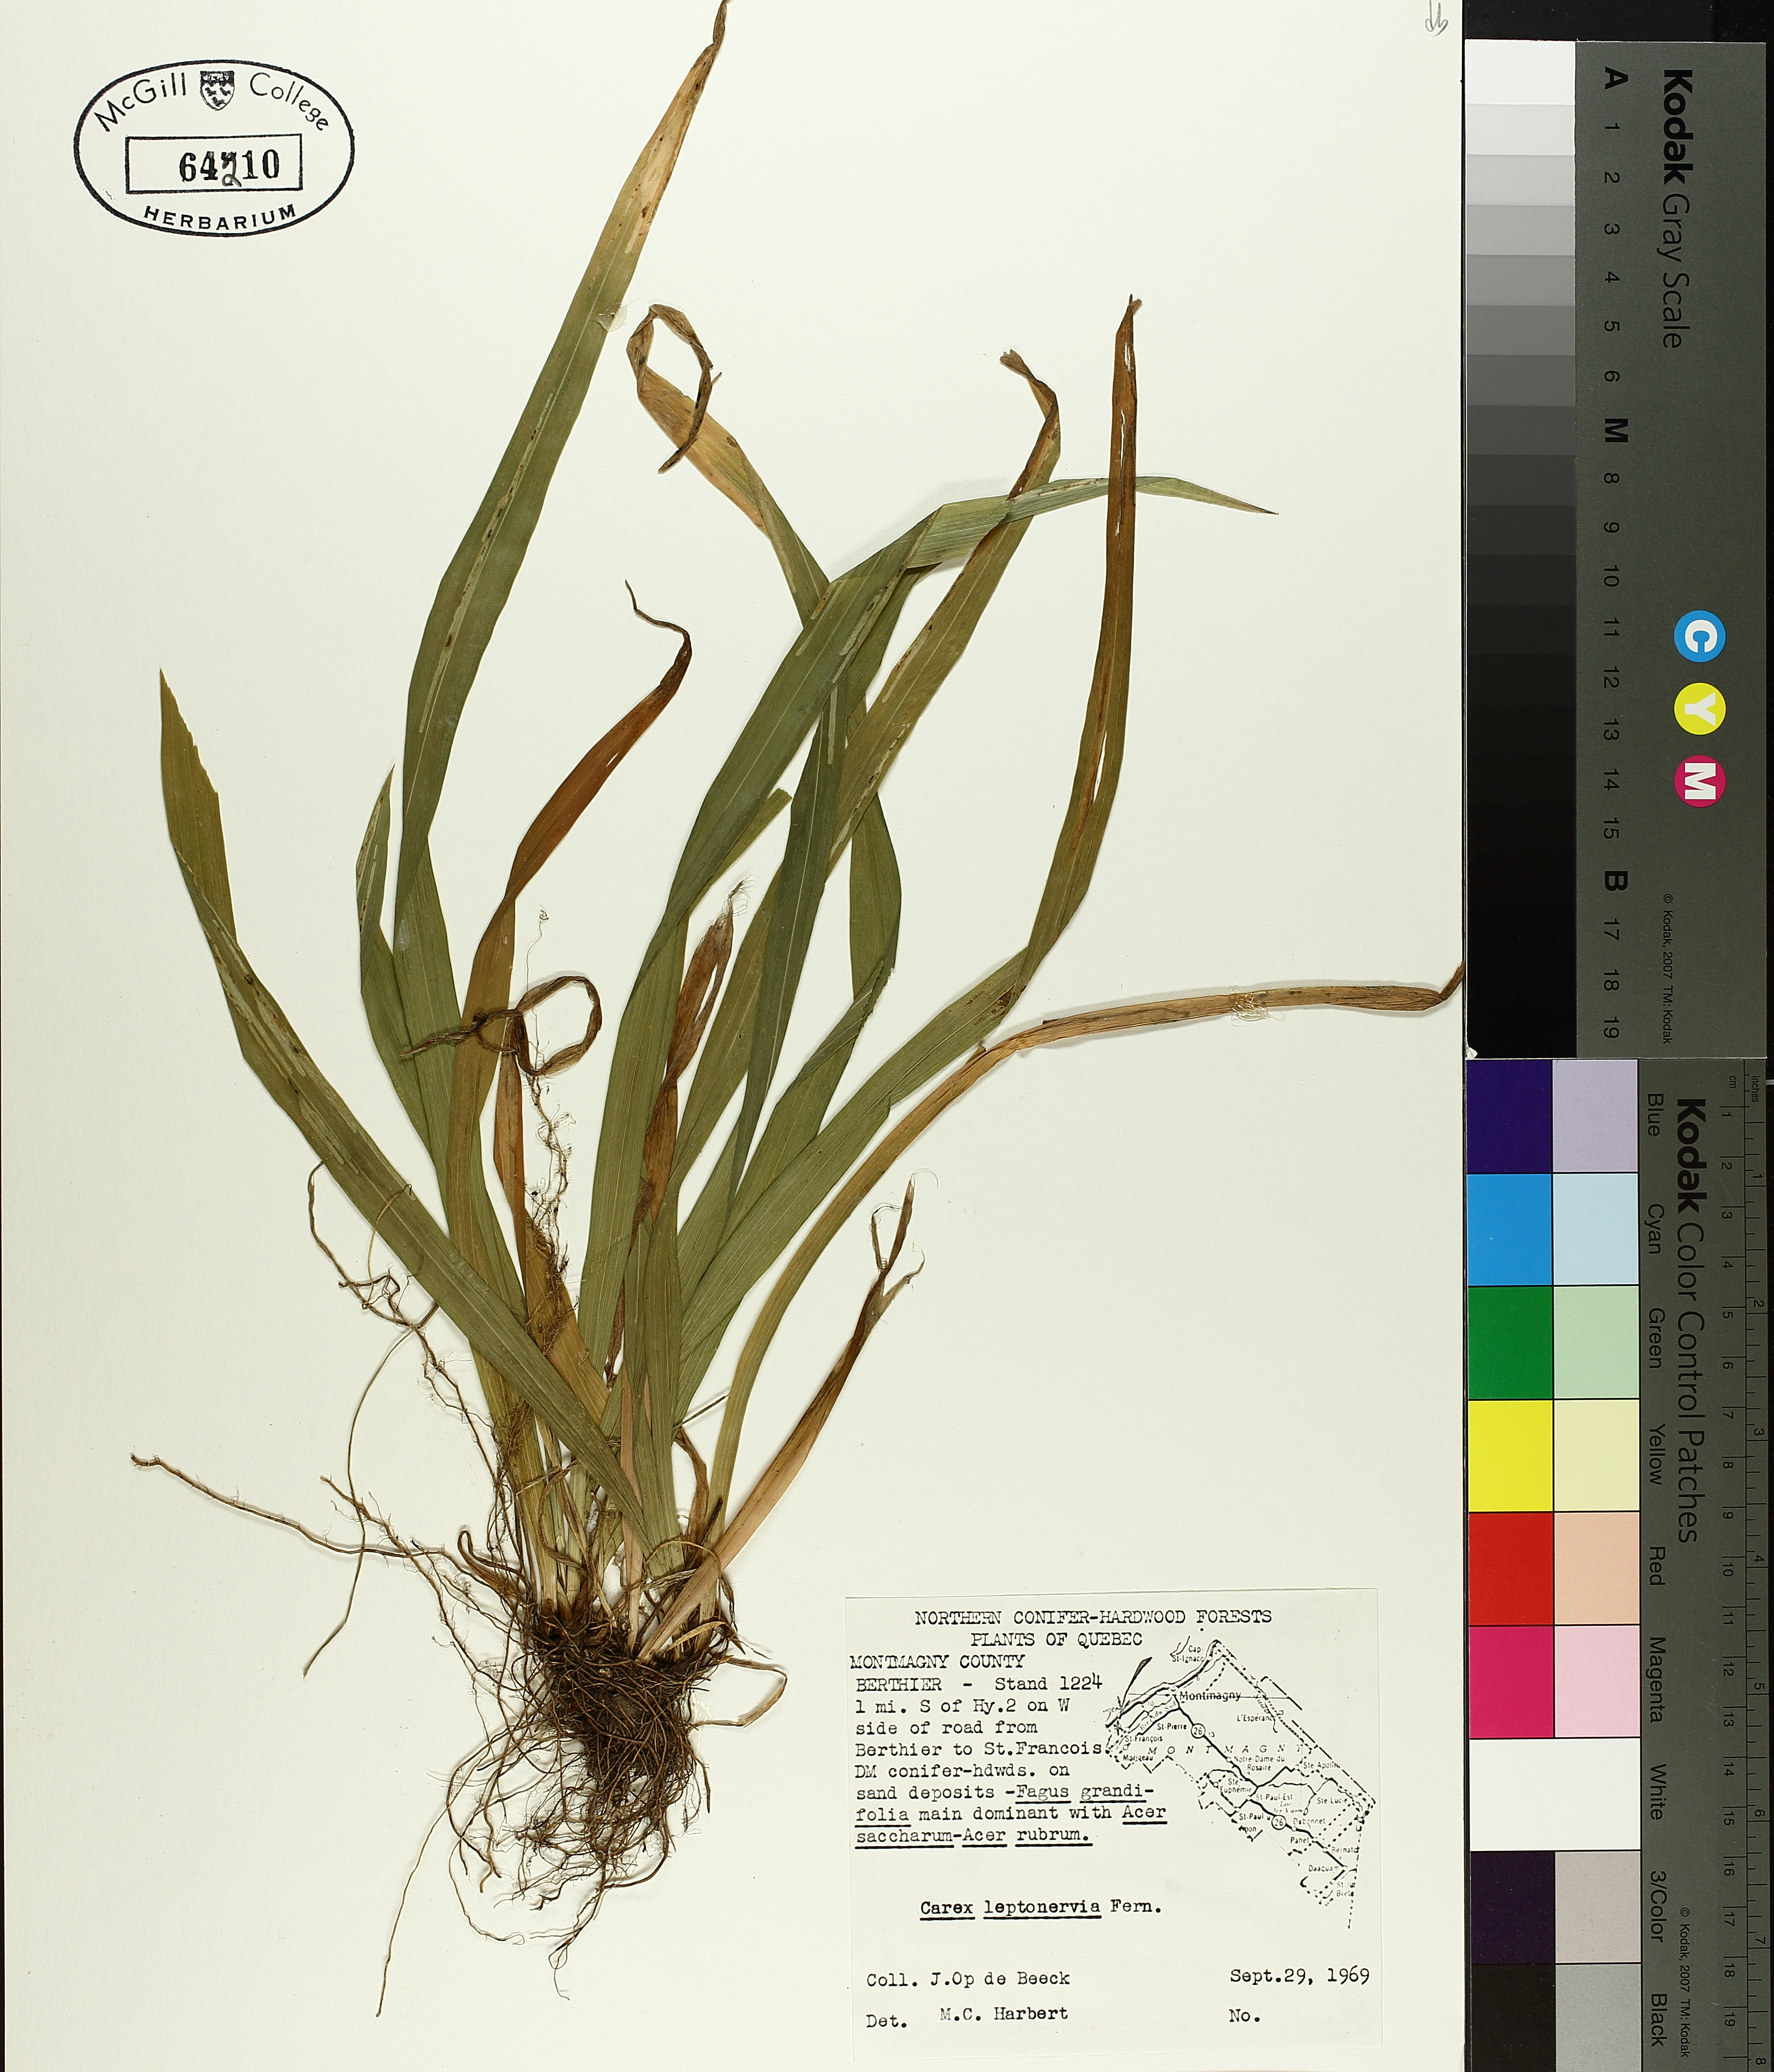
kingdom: Plantae
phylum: Tracheophyta
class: Liliopsida
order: Poales
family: Cyperaceae
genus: Carex
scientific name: Carex leptonervia
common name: Few-nerved wood sedge
